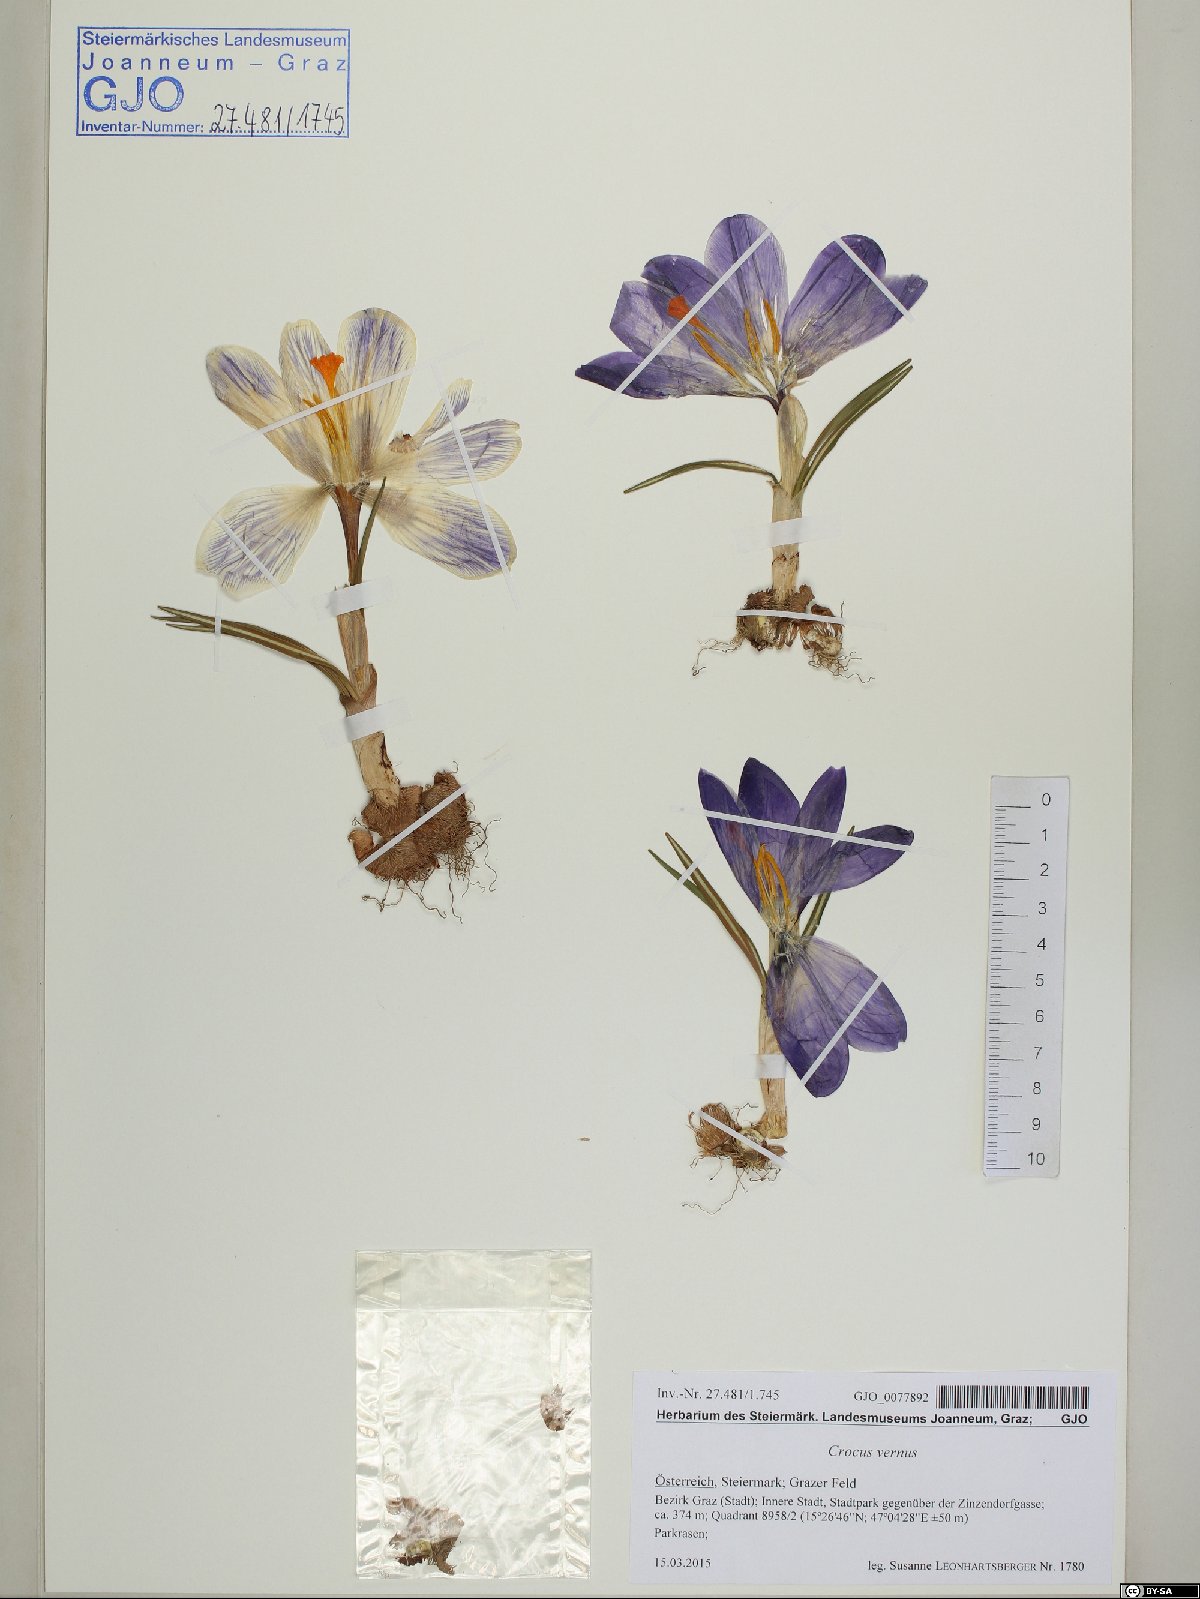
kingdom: Plantae
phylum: Tracheophyta
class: Liliopsida
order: Asparagales
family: Iridaceae
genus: Crocus
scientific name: Crocus vernus
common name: Spring crocus
